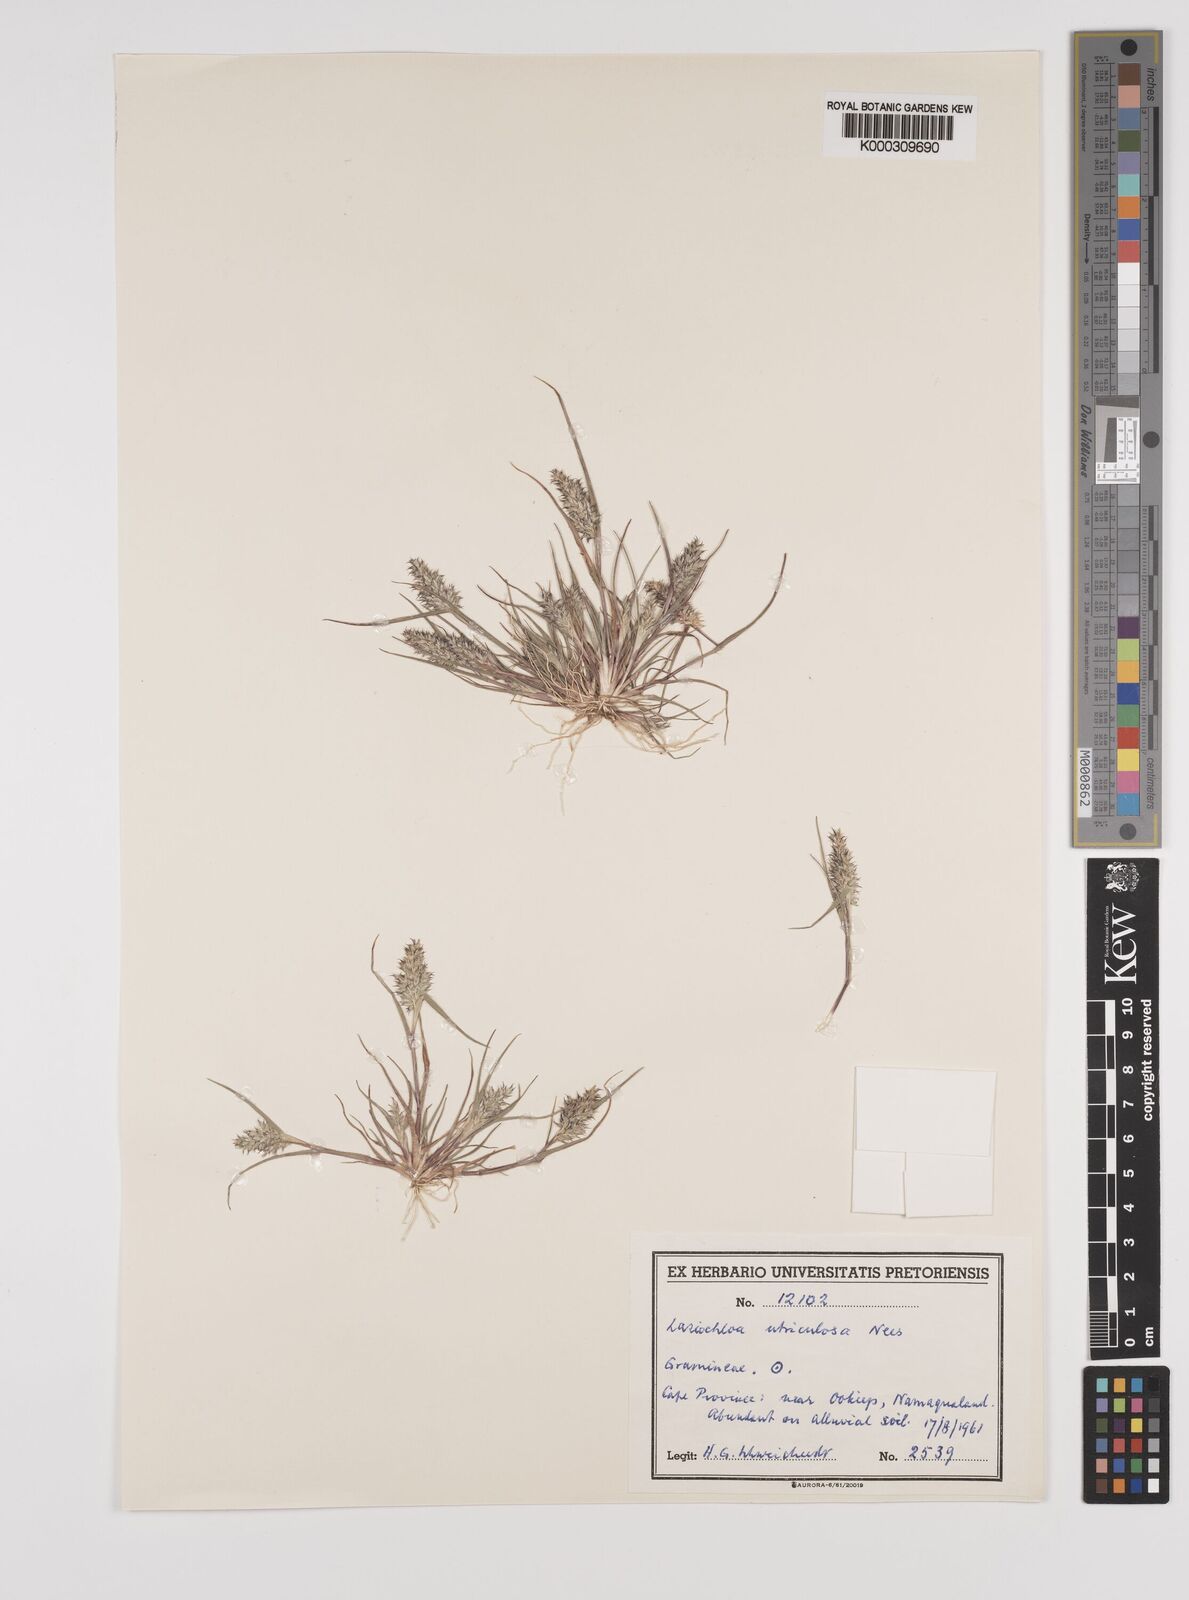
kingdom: Plantae
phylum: Tracheophyta
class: Liliopsida
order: Poales
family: Poaceae
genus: Tribolium
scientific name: Tribolium utriculosum
